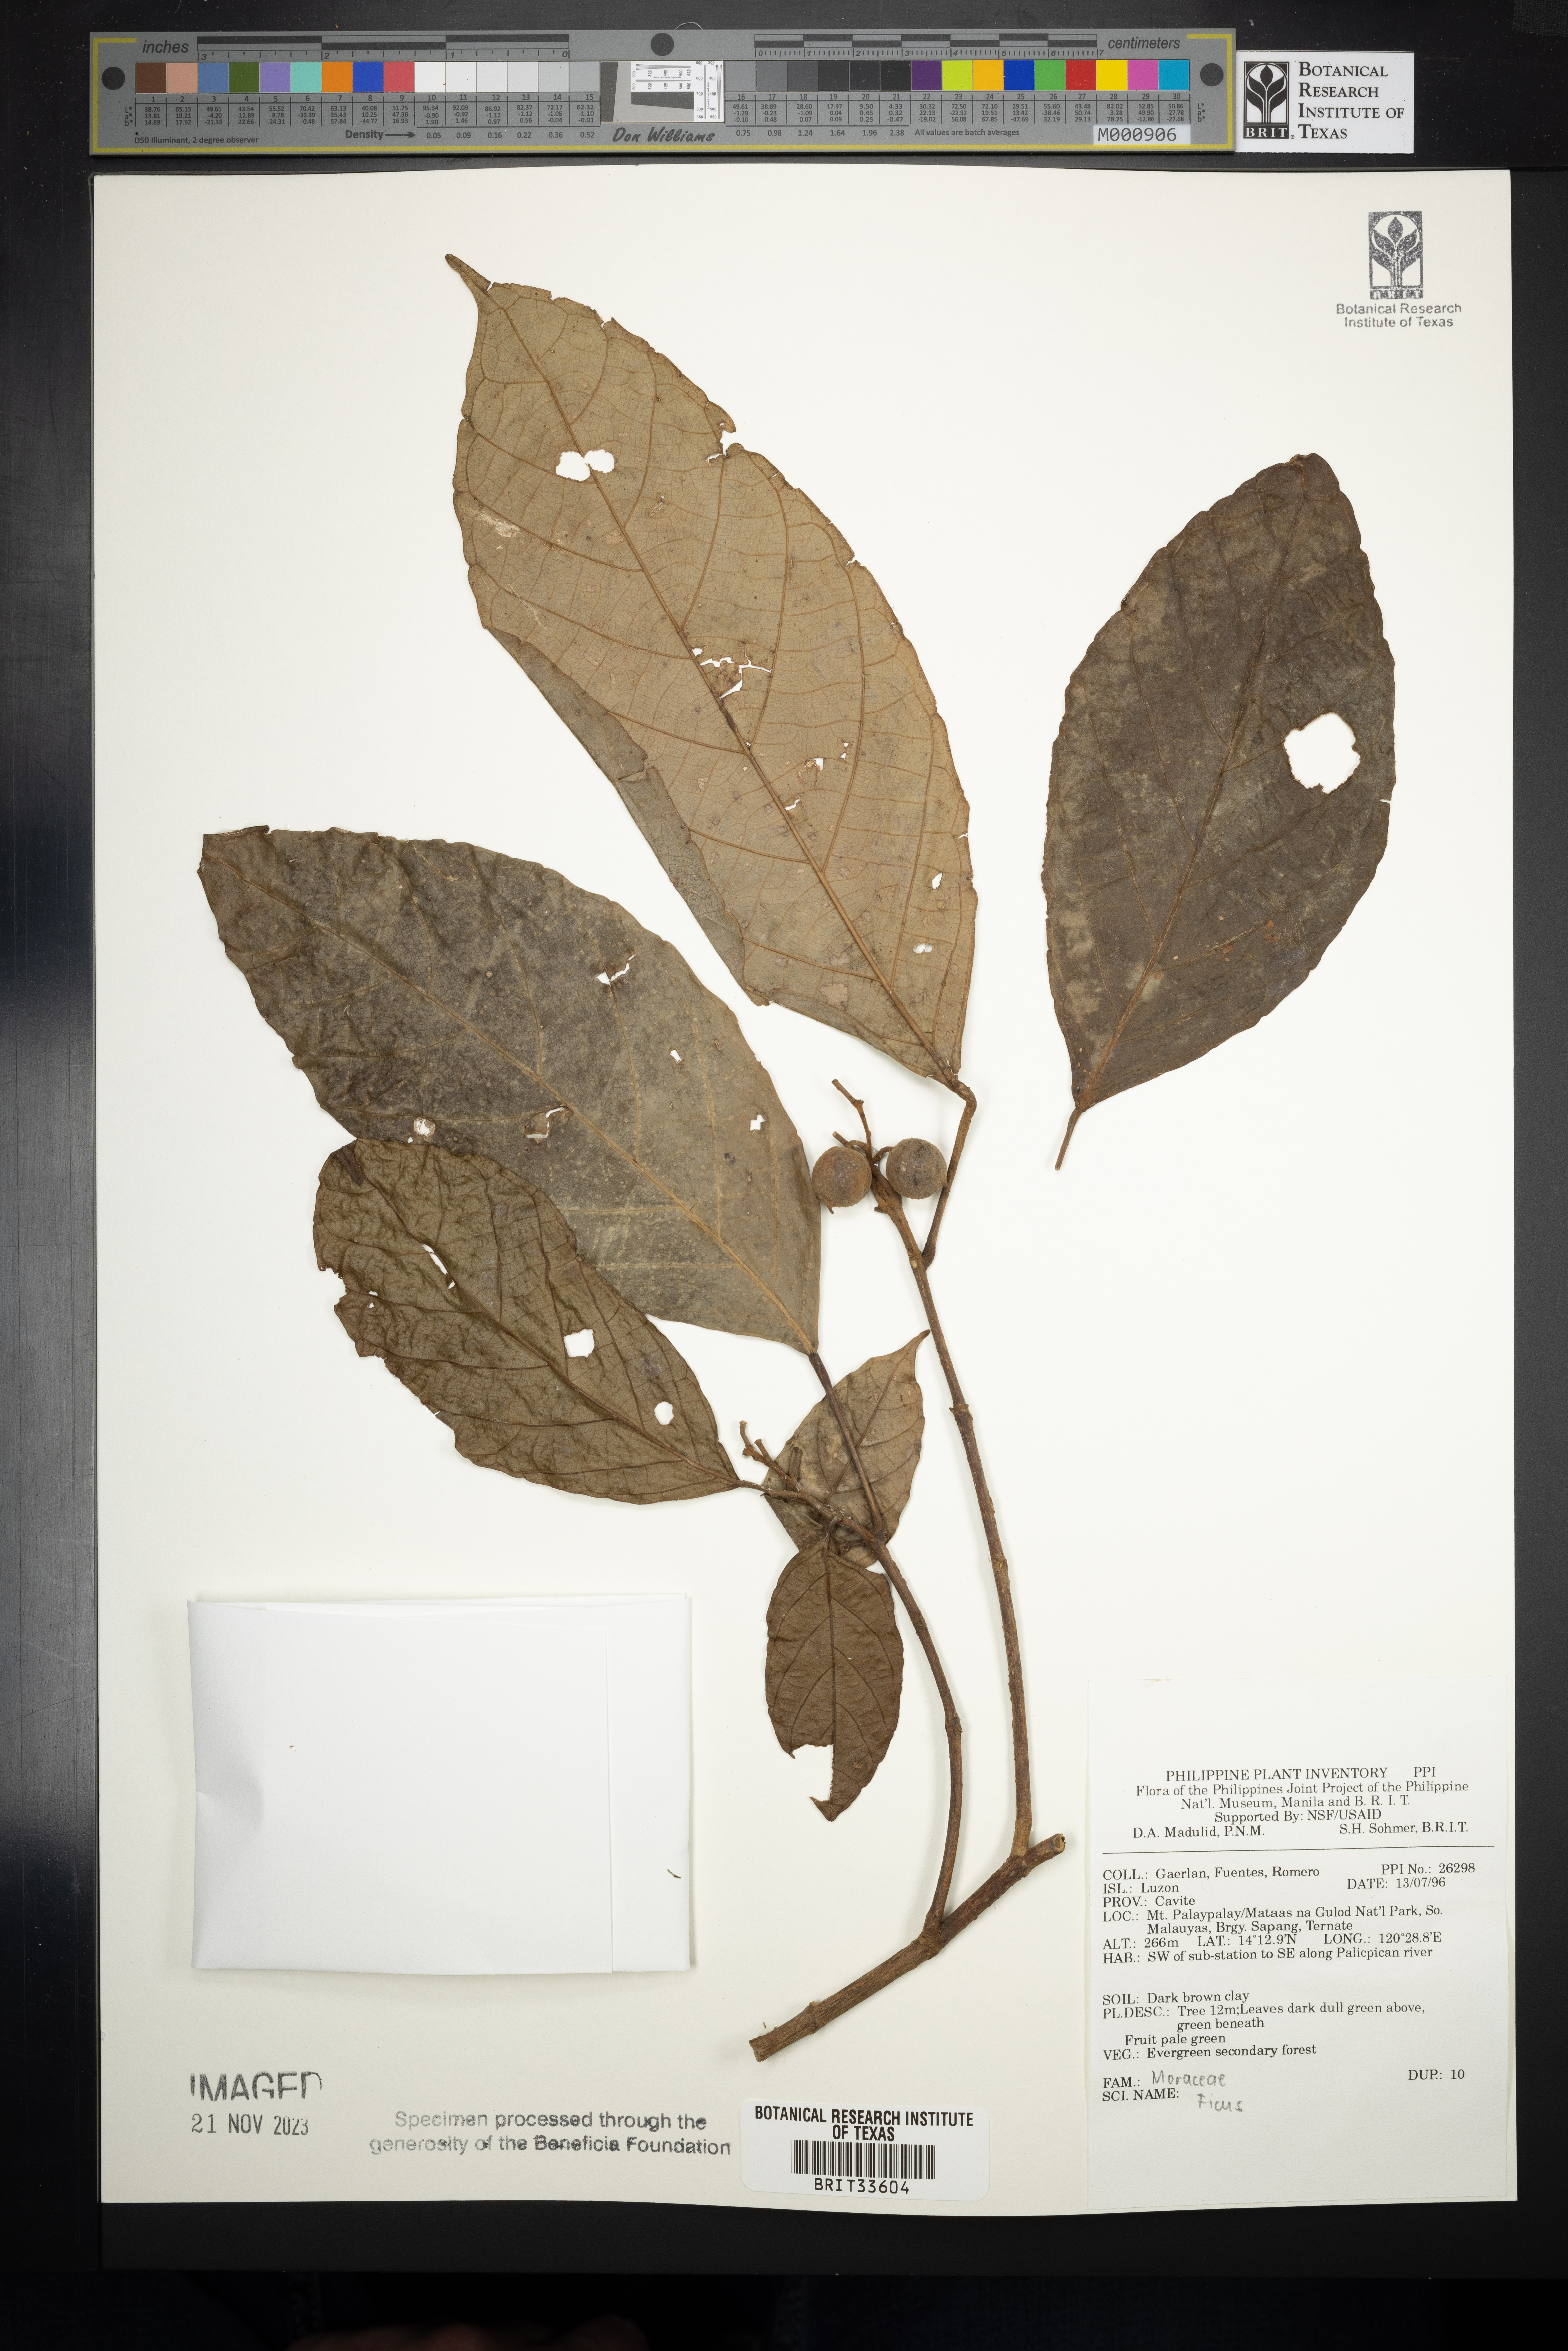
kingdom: Plantae
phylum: Tracheophyta
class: Magnoliopsida
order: Rosales
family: Moraceae
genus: Ficus
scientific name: Ficus
